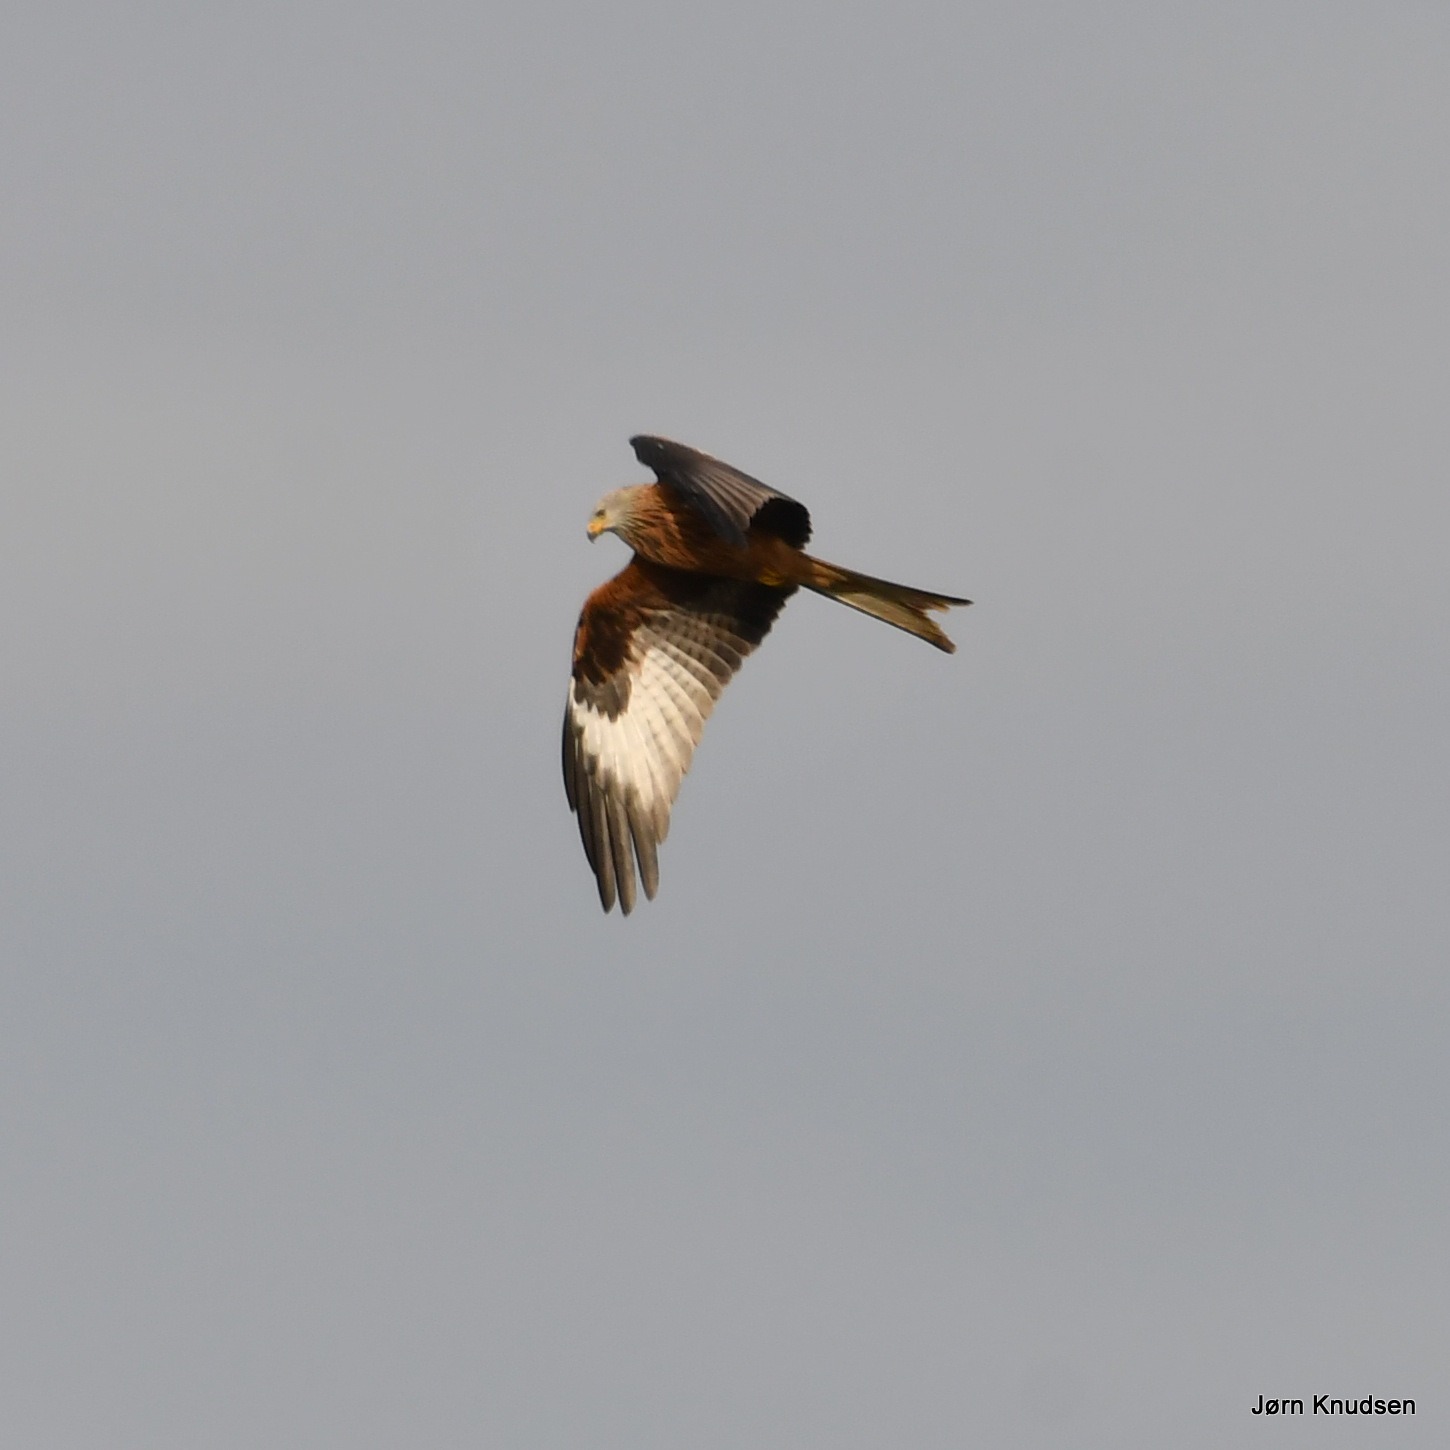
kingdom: Animalia
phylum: Chordata
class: Aves
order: Accipitriformes
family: Accipitridae
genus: Milvus
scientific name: Milvus milvus
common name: Rød glente
